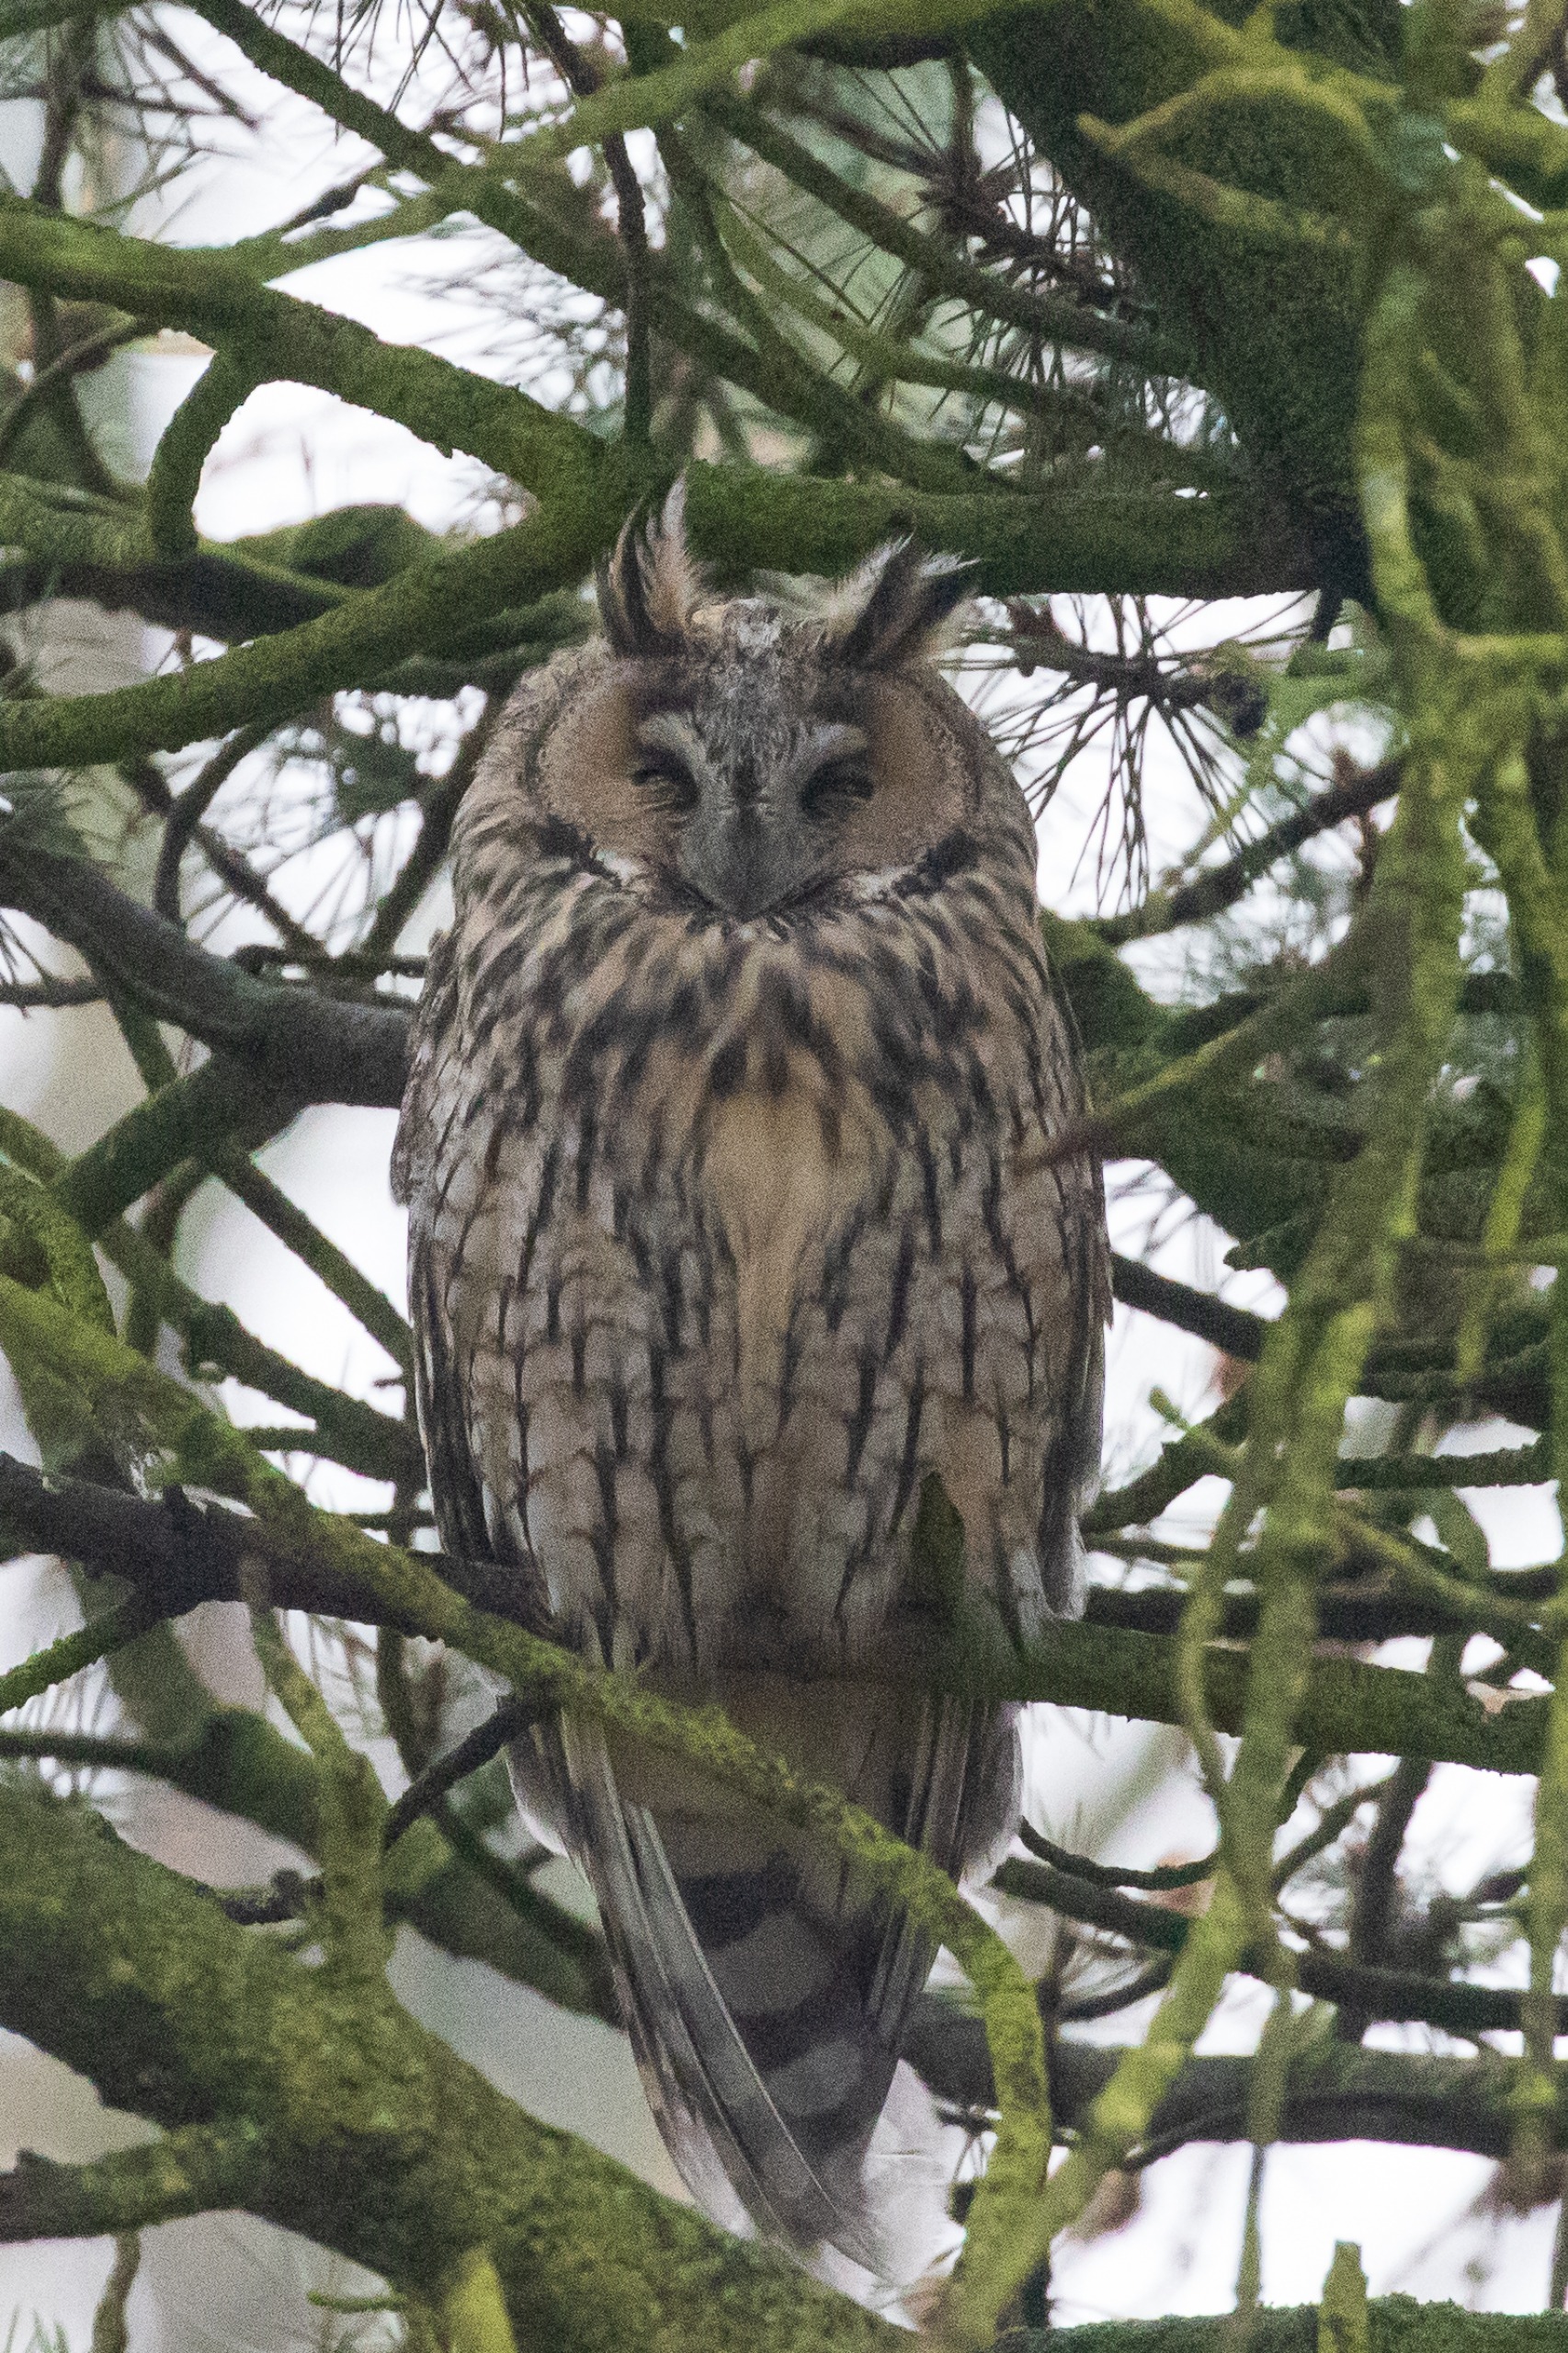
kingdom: Animalia
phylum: Chordata
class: Aves
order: Strigiformes
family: Strigidae
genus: Asio
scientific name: Asio otus
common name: Skovhornugle
